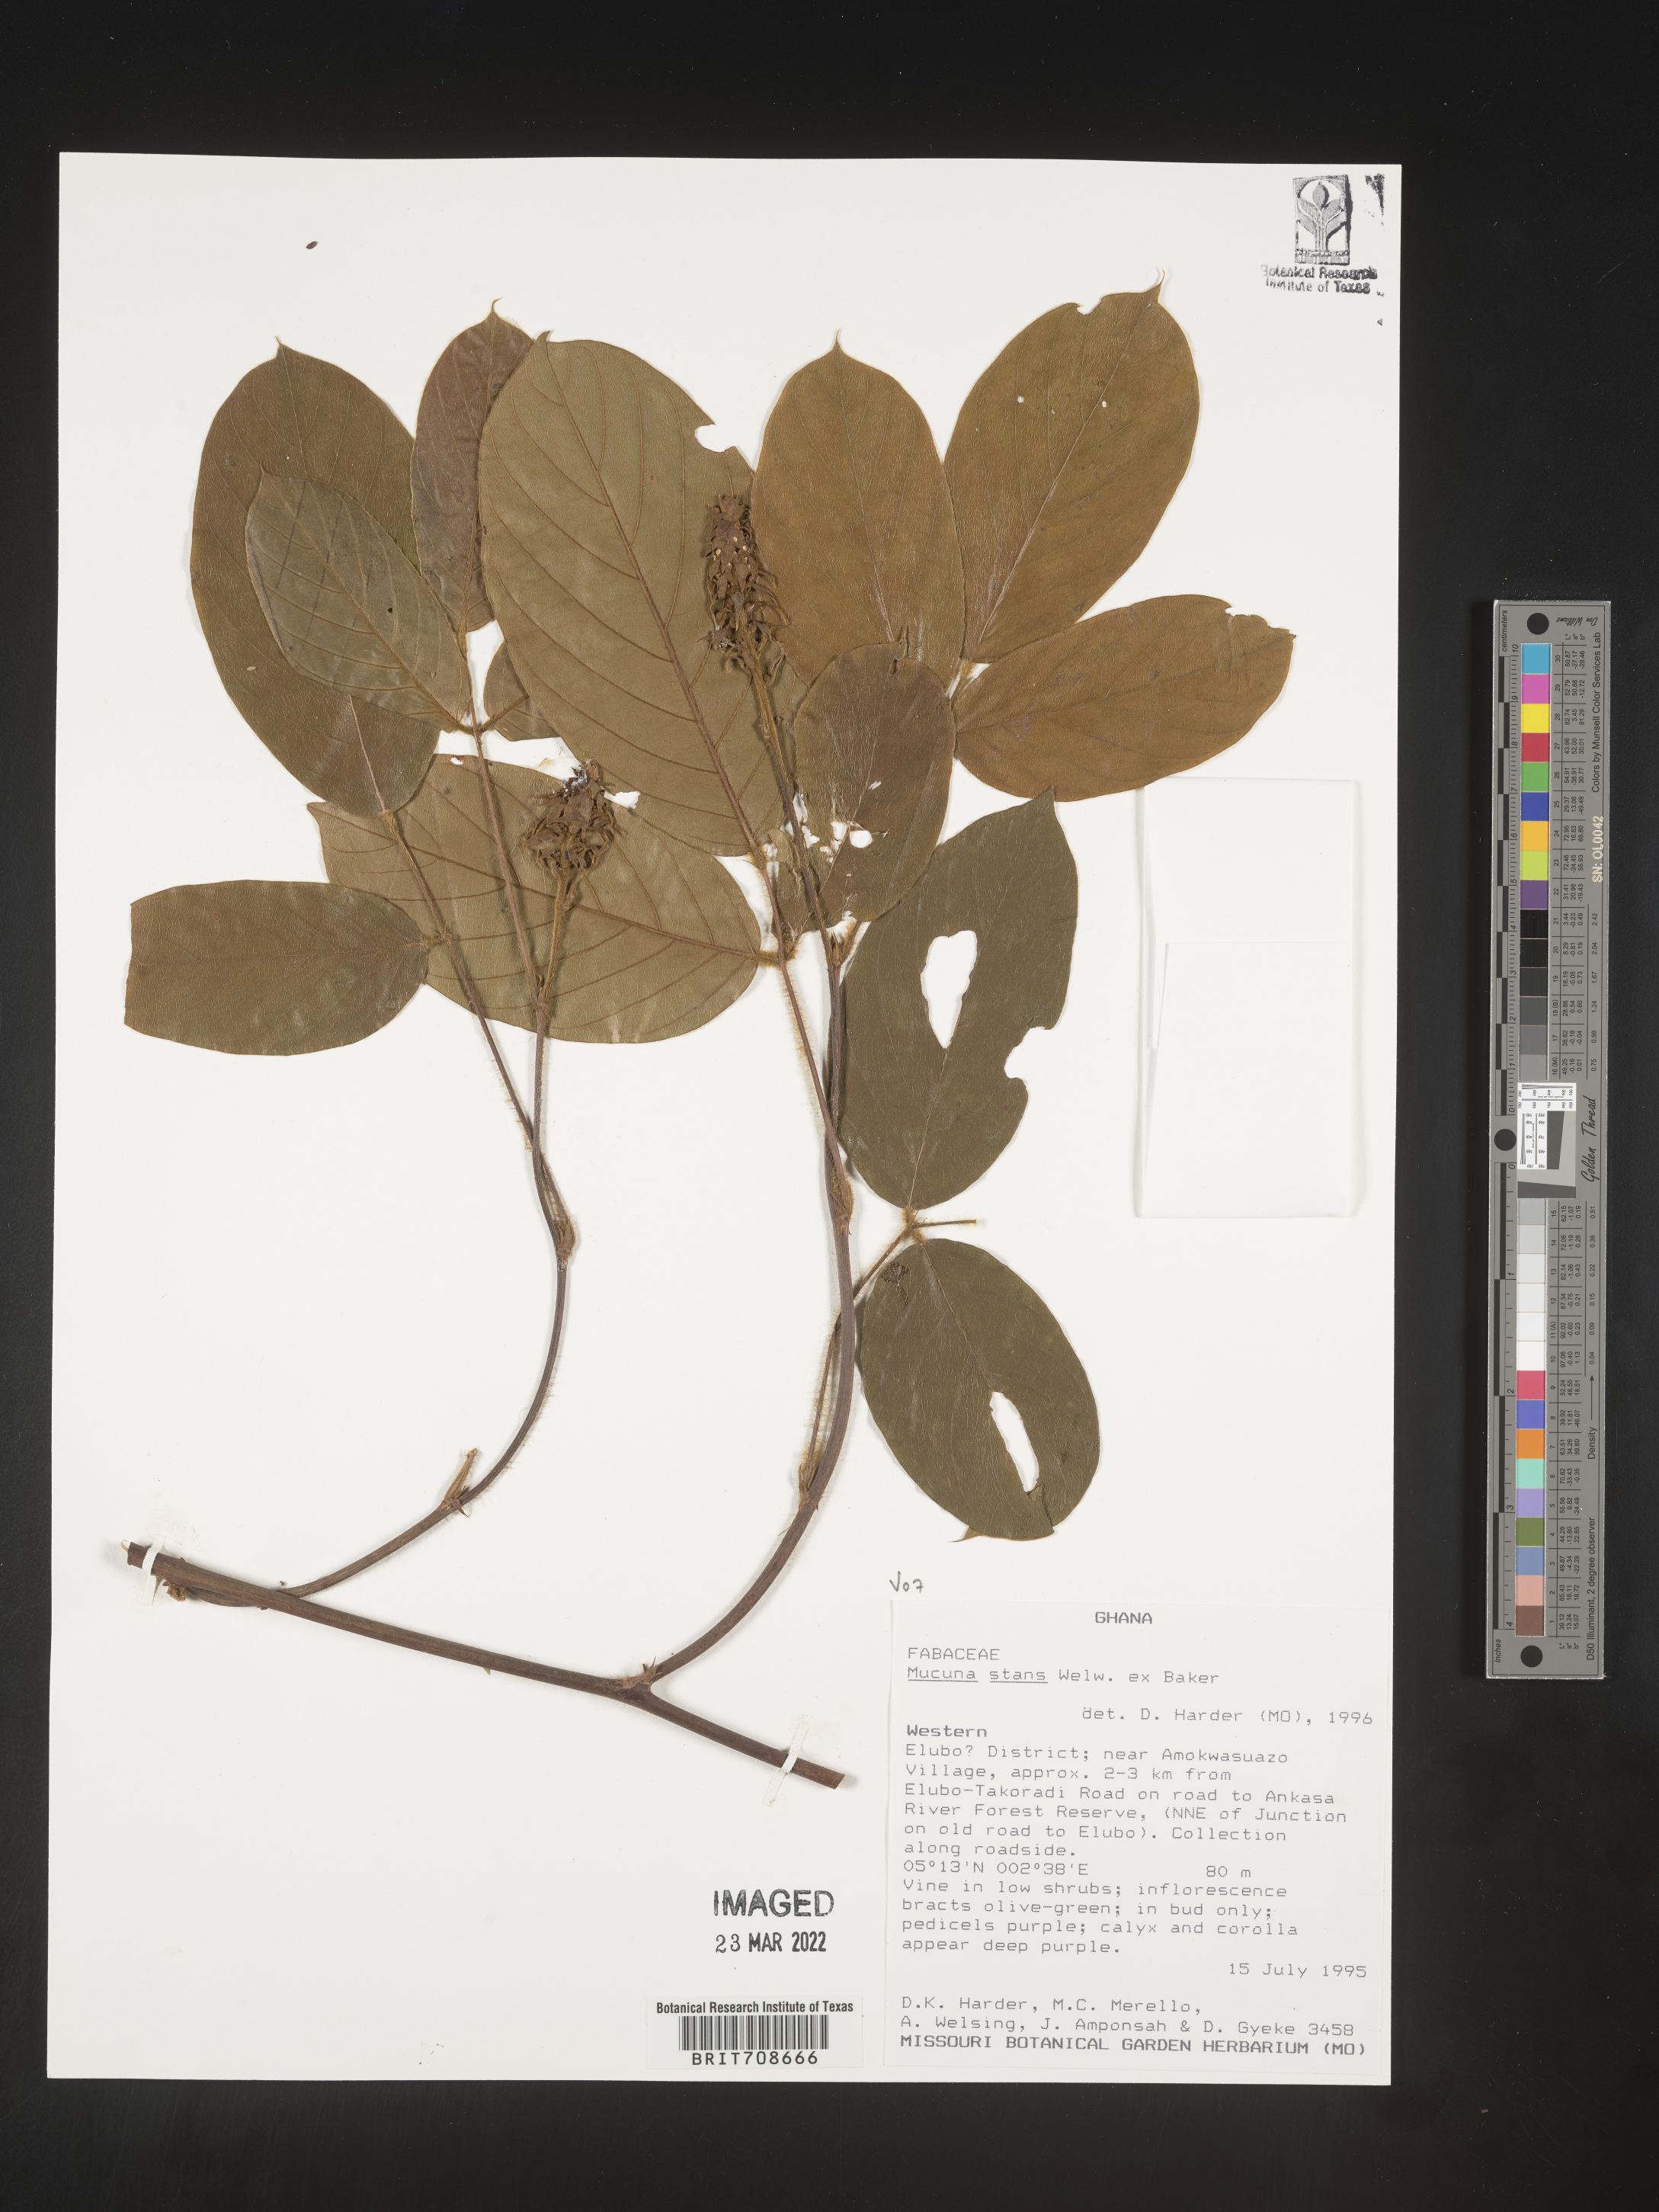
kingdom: Plantae
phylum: Tracheophyta
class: Magnoliopsida
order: Fabales
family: Fabaceae
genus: Mucuna
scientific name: Mucuna
